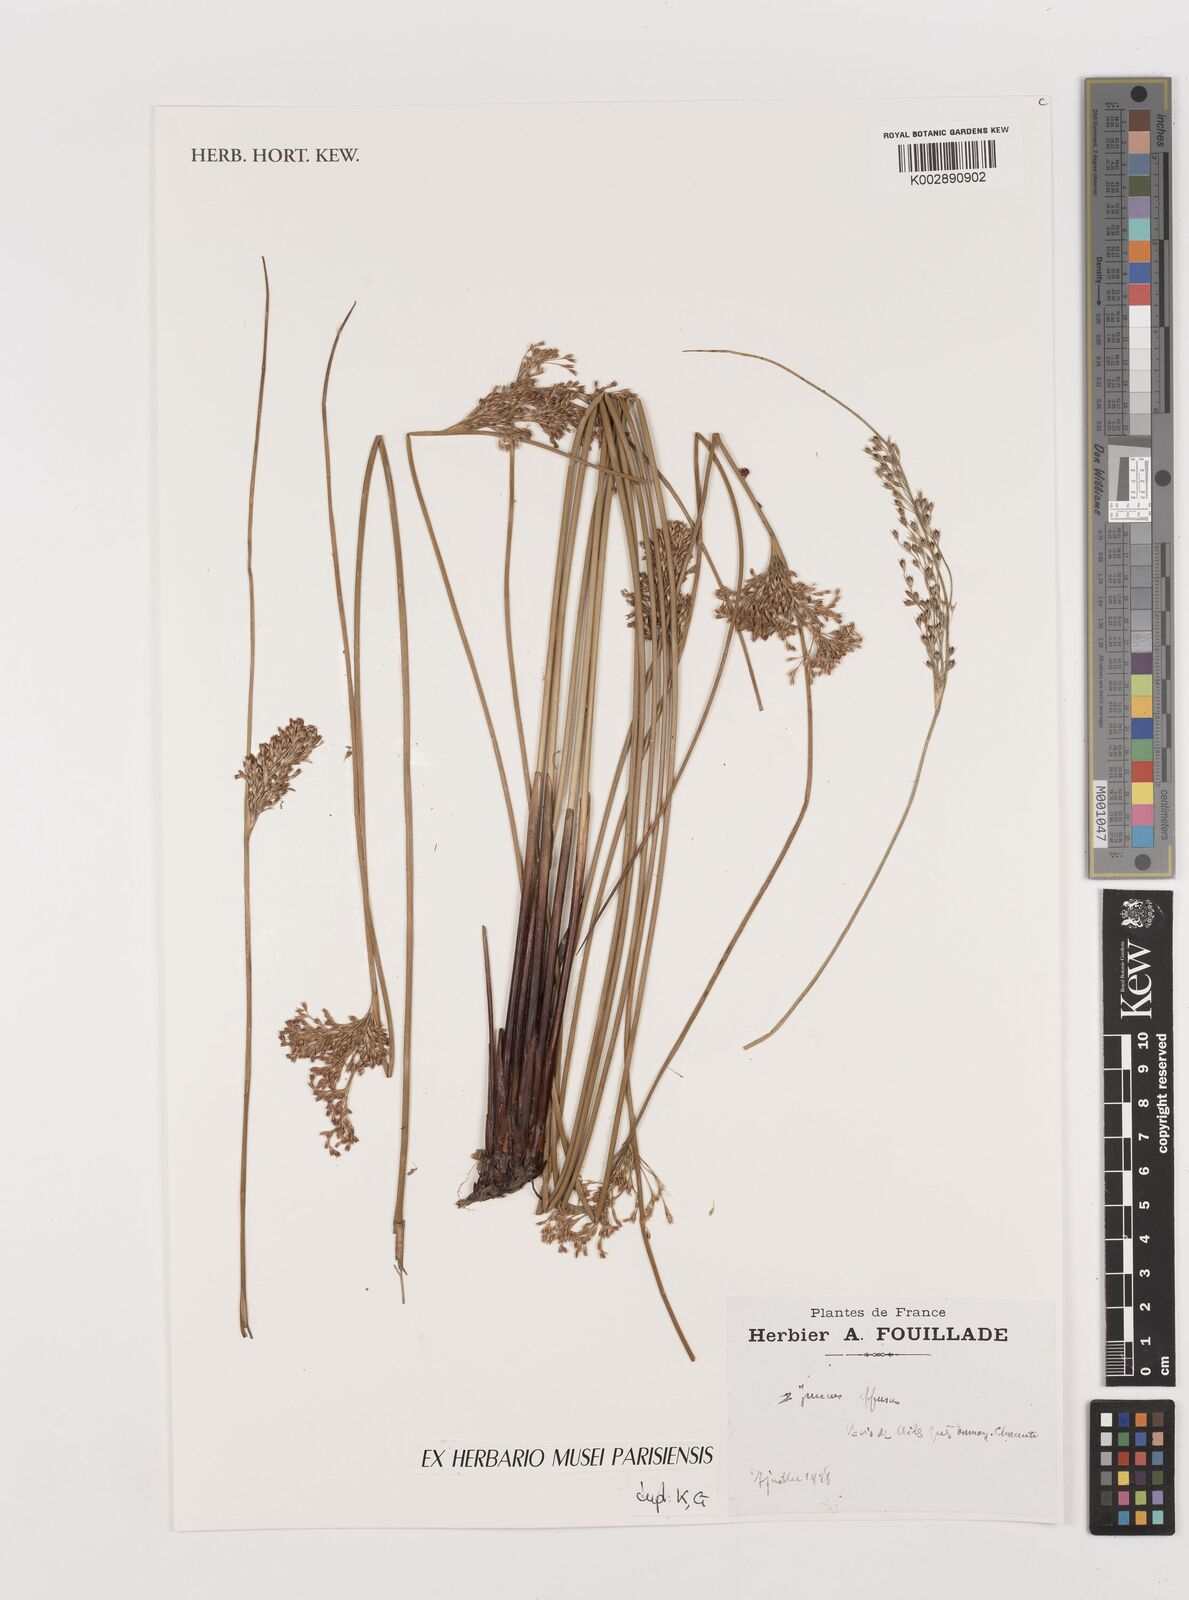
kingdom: Plantae
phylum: Tracheophyta
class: Liliopsida
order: Poales
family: Juncaceae
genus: Juncus
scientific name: Juncus
